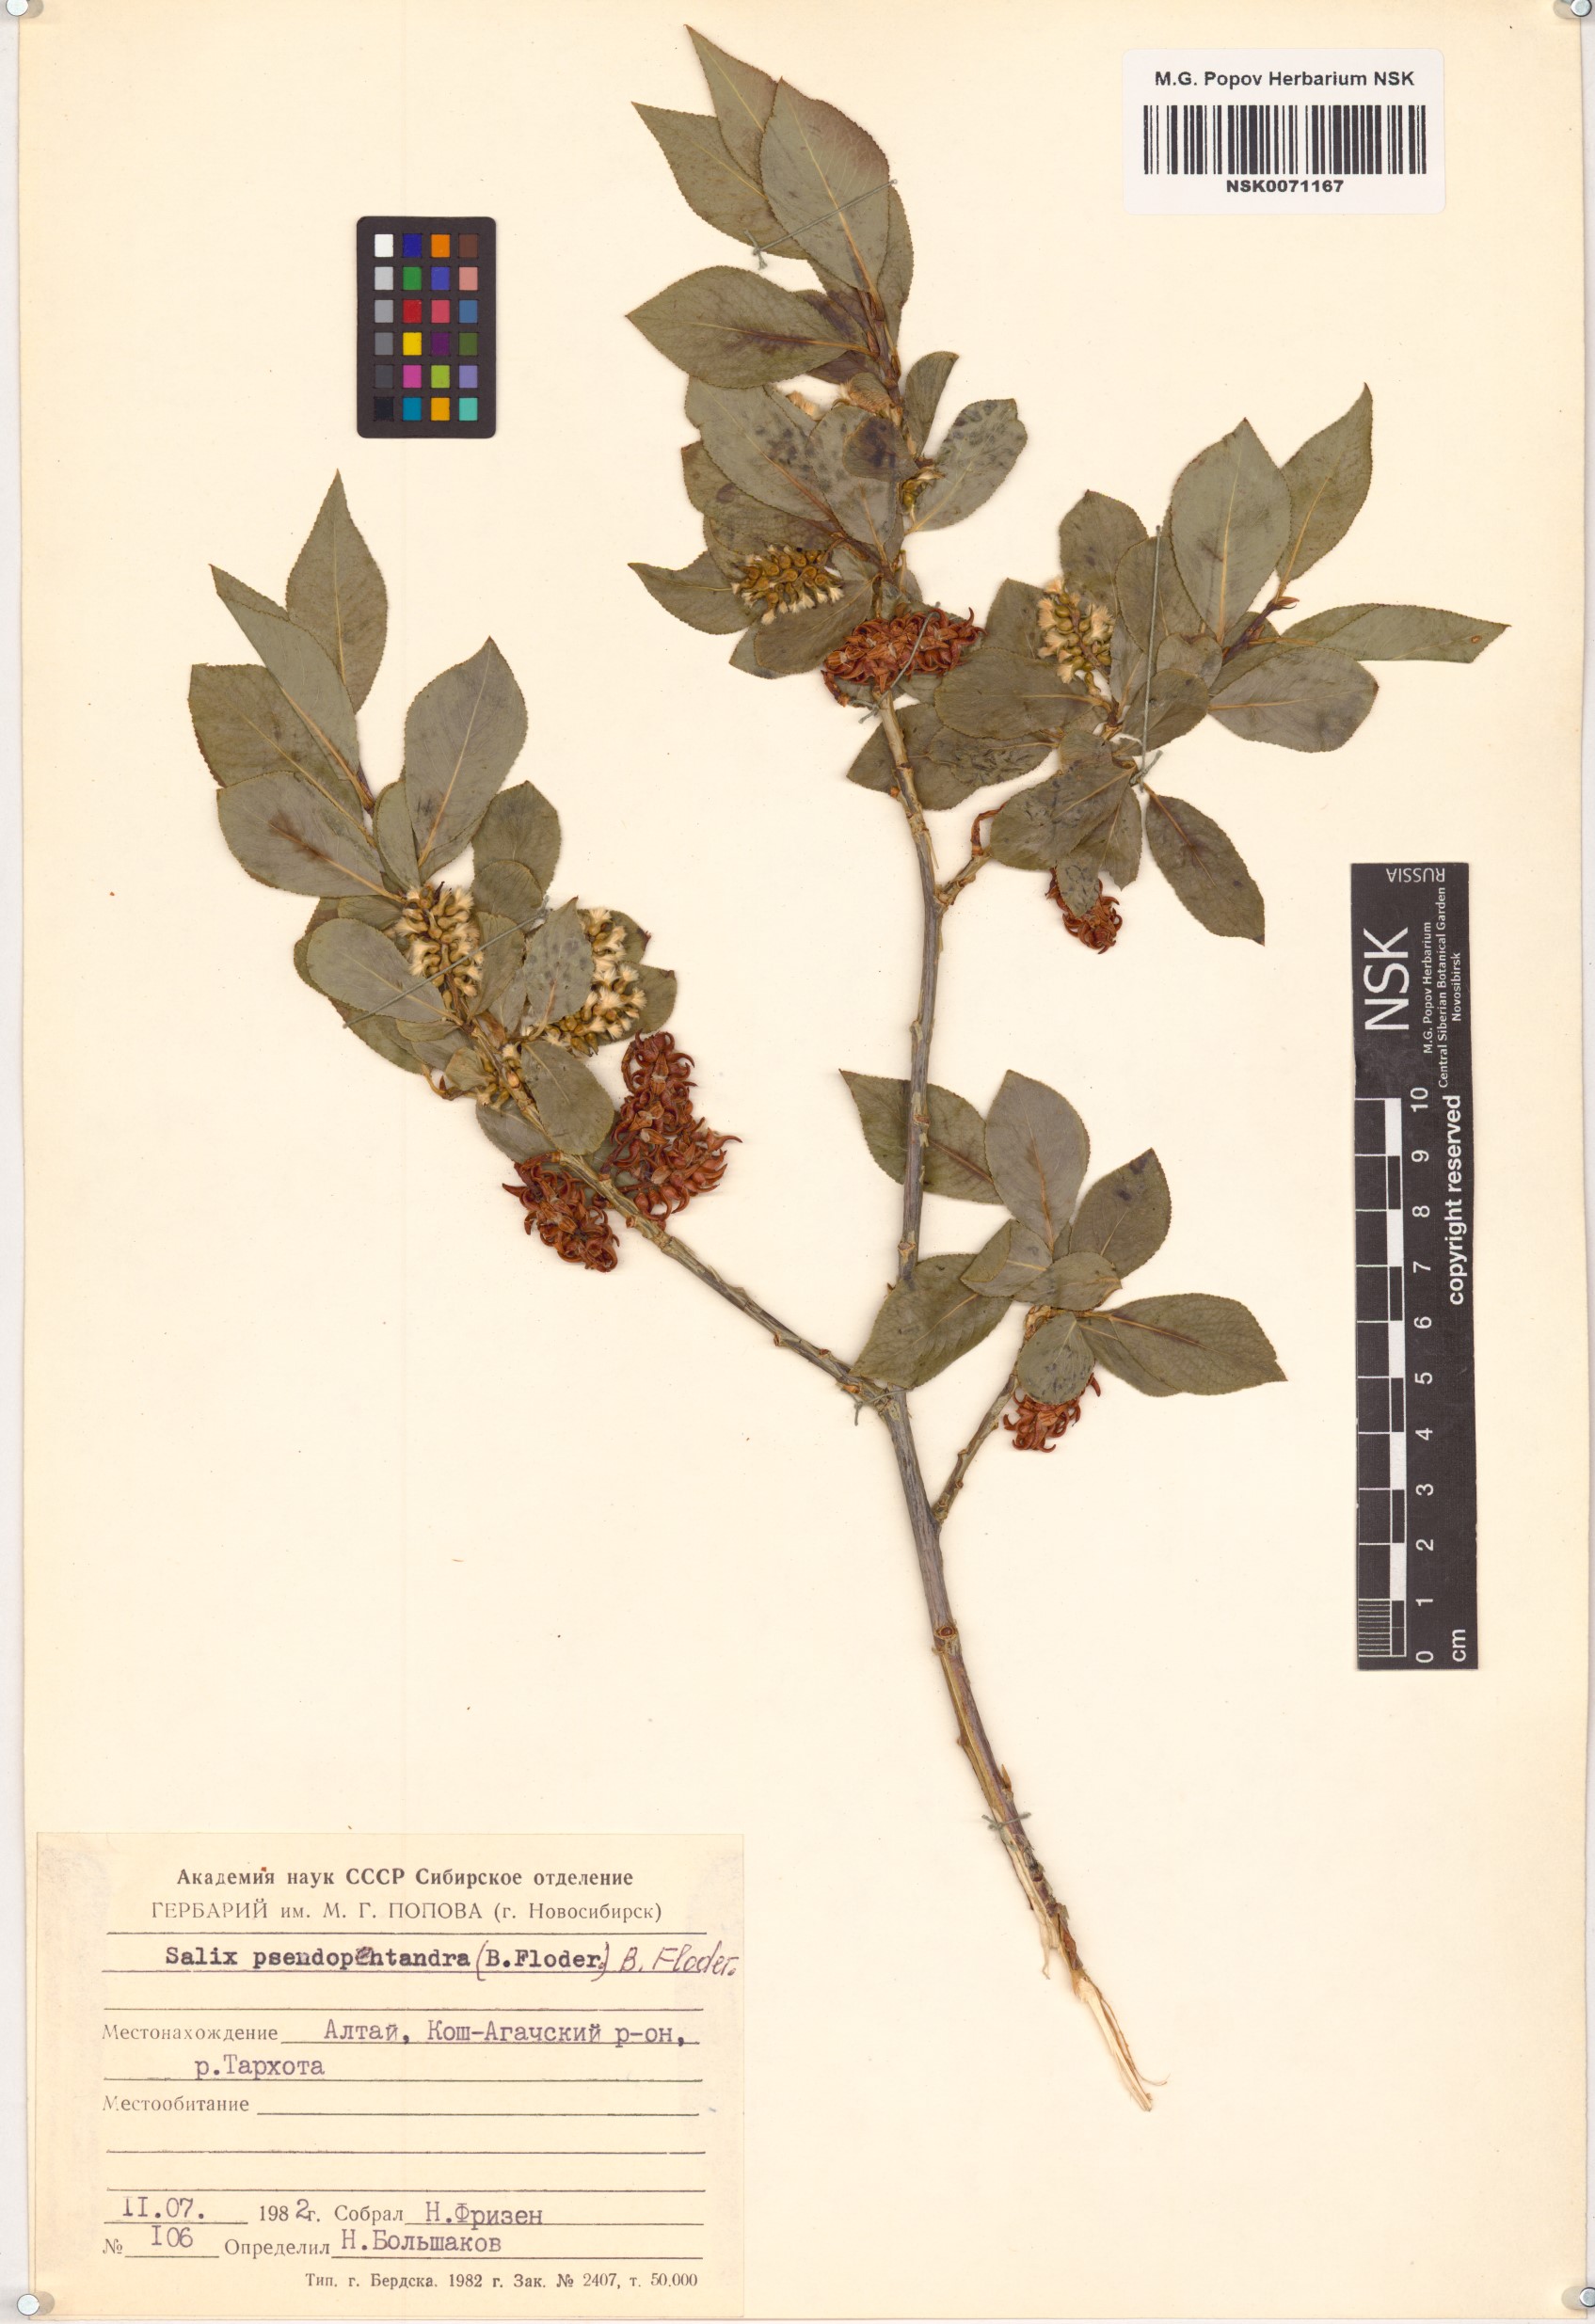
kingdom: Plantae
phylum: Tracheophyta
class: Magnoliopsida
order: Malpighiales
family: Salicaceae
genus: Salix
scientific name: Salix pseudopentandra
